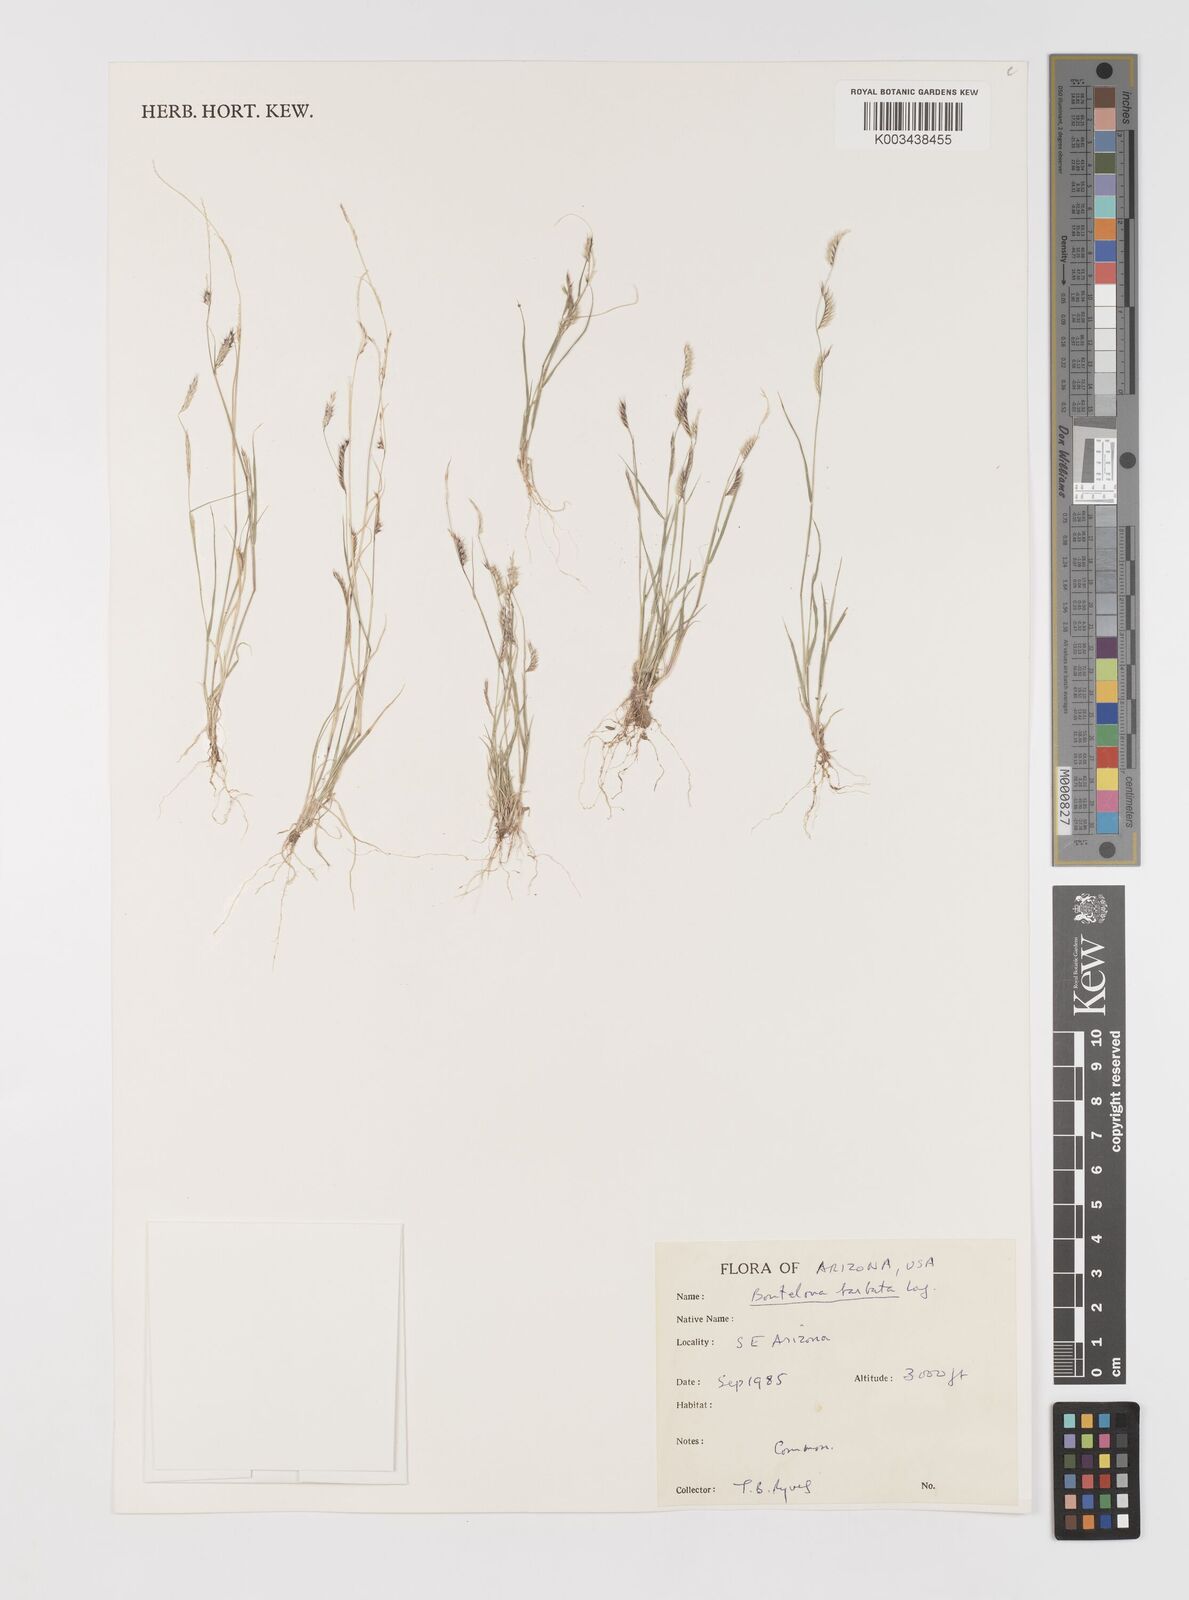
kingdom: Plantae
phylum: Tracheophyta
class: Liliopsida
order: Poales
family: Poaceae
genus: Bouteloua
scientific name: Bouteloua
